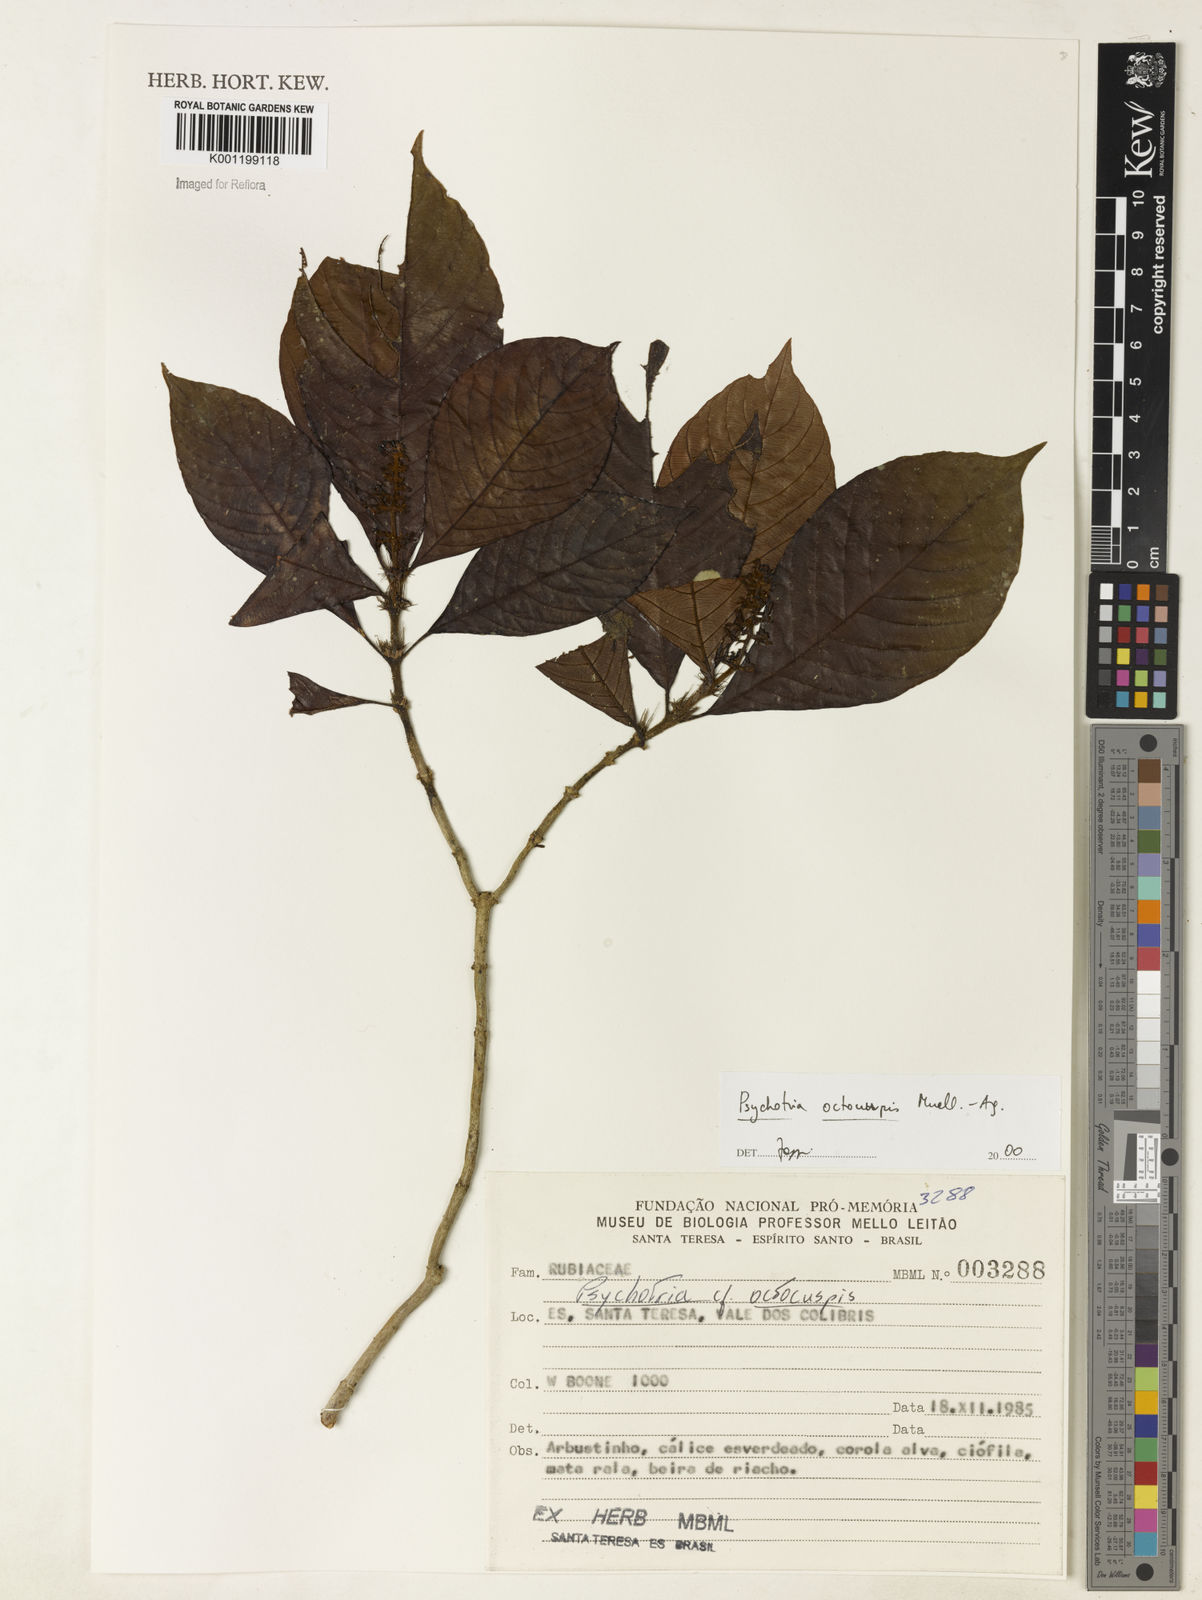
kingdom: Plantae
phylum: Tracheophyta
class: Magnoliopsida
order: Gentianales
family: Rubiaceae
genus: Psychotria
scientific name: Psychotria
